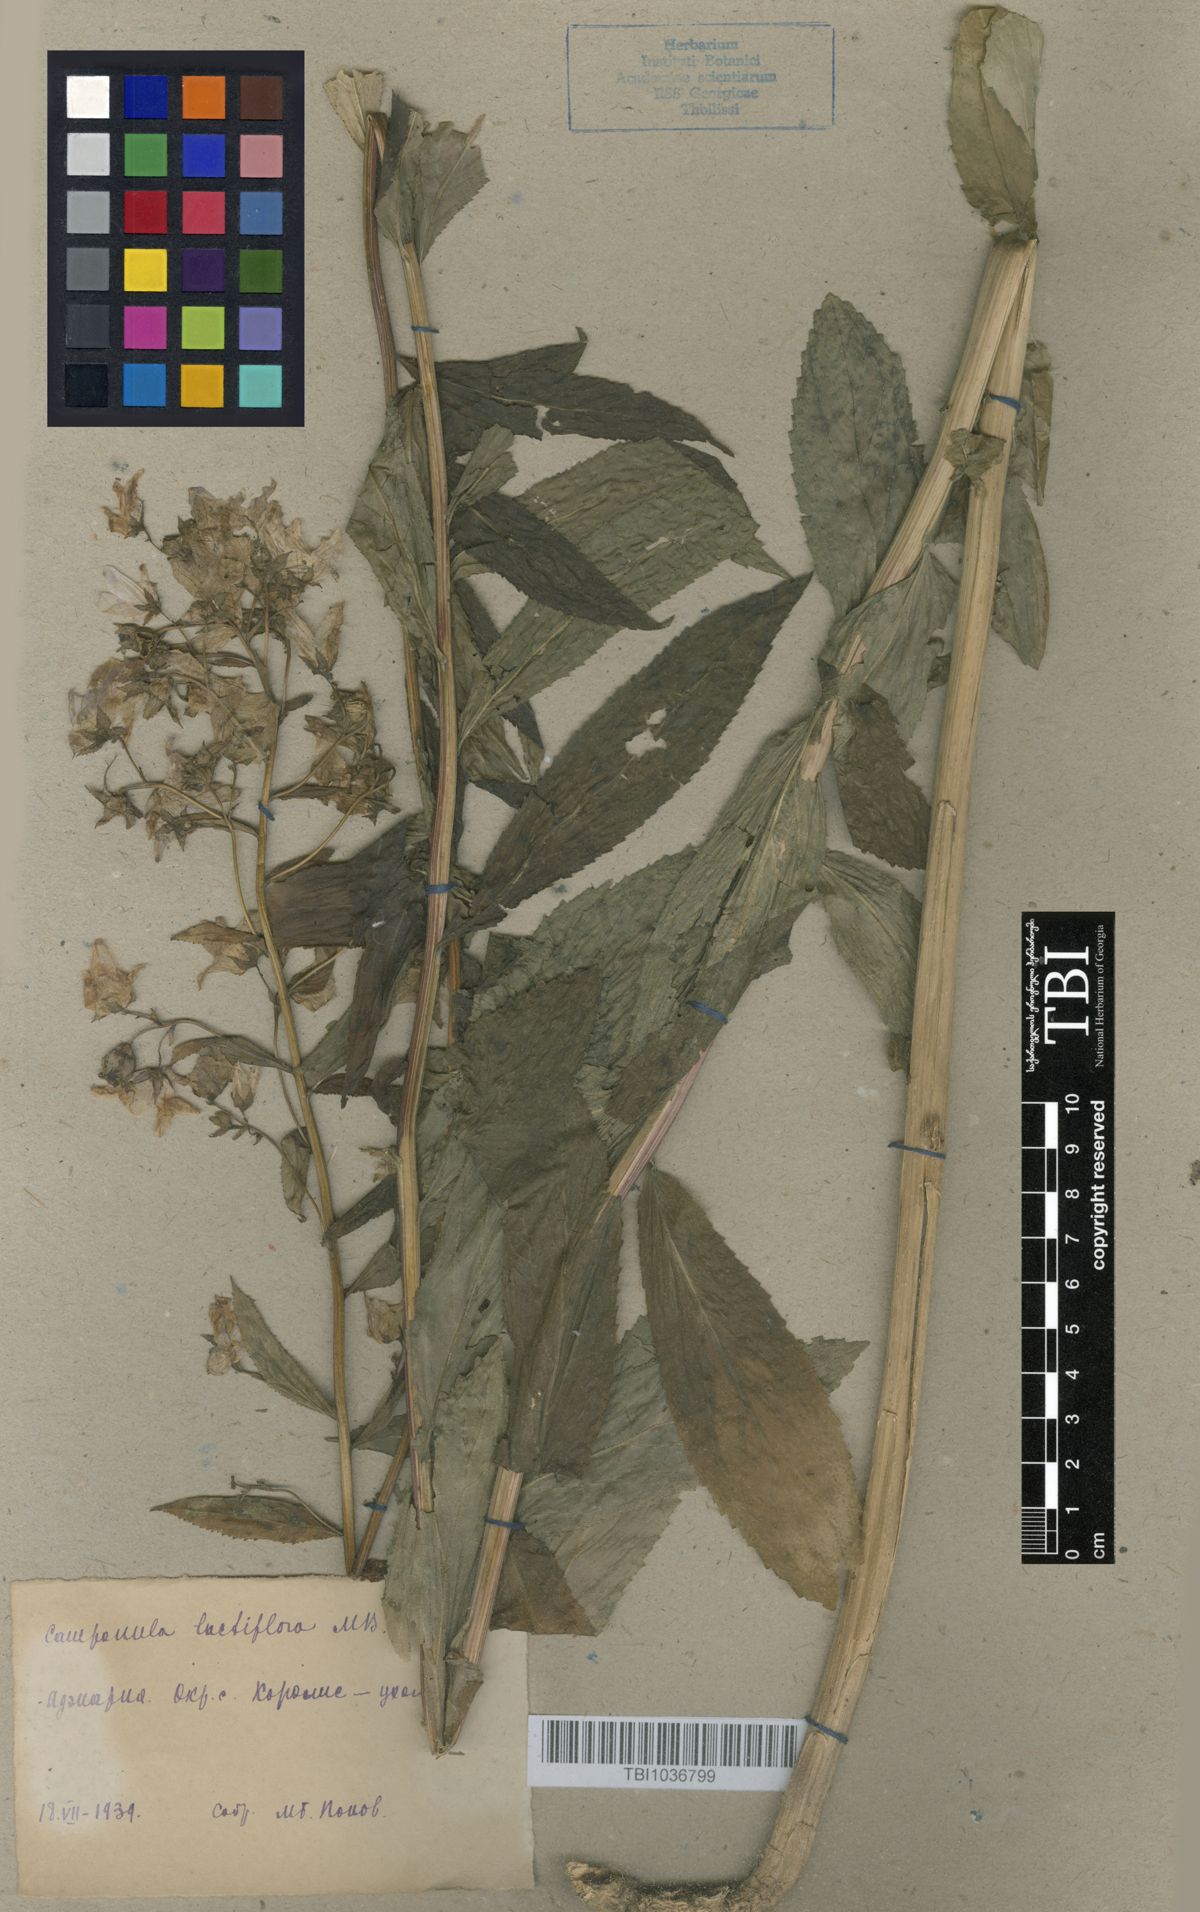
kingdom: Plantae
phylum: Tracheophyta
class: Magnoliopsida
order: Asterales
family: Campanulaceae
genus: Campanula
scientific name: Campanula lactiflora
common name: Milky bellflower
